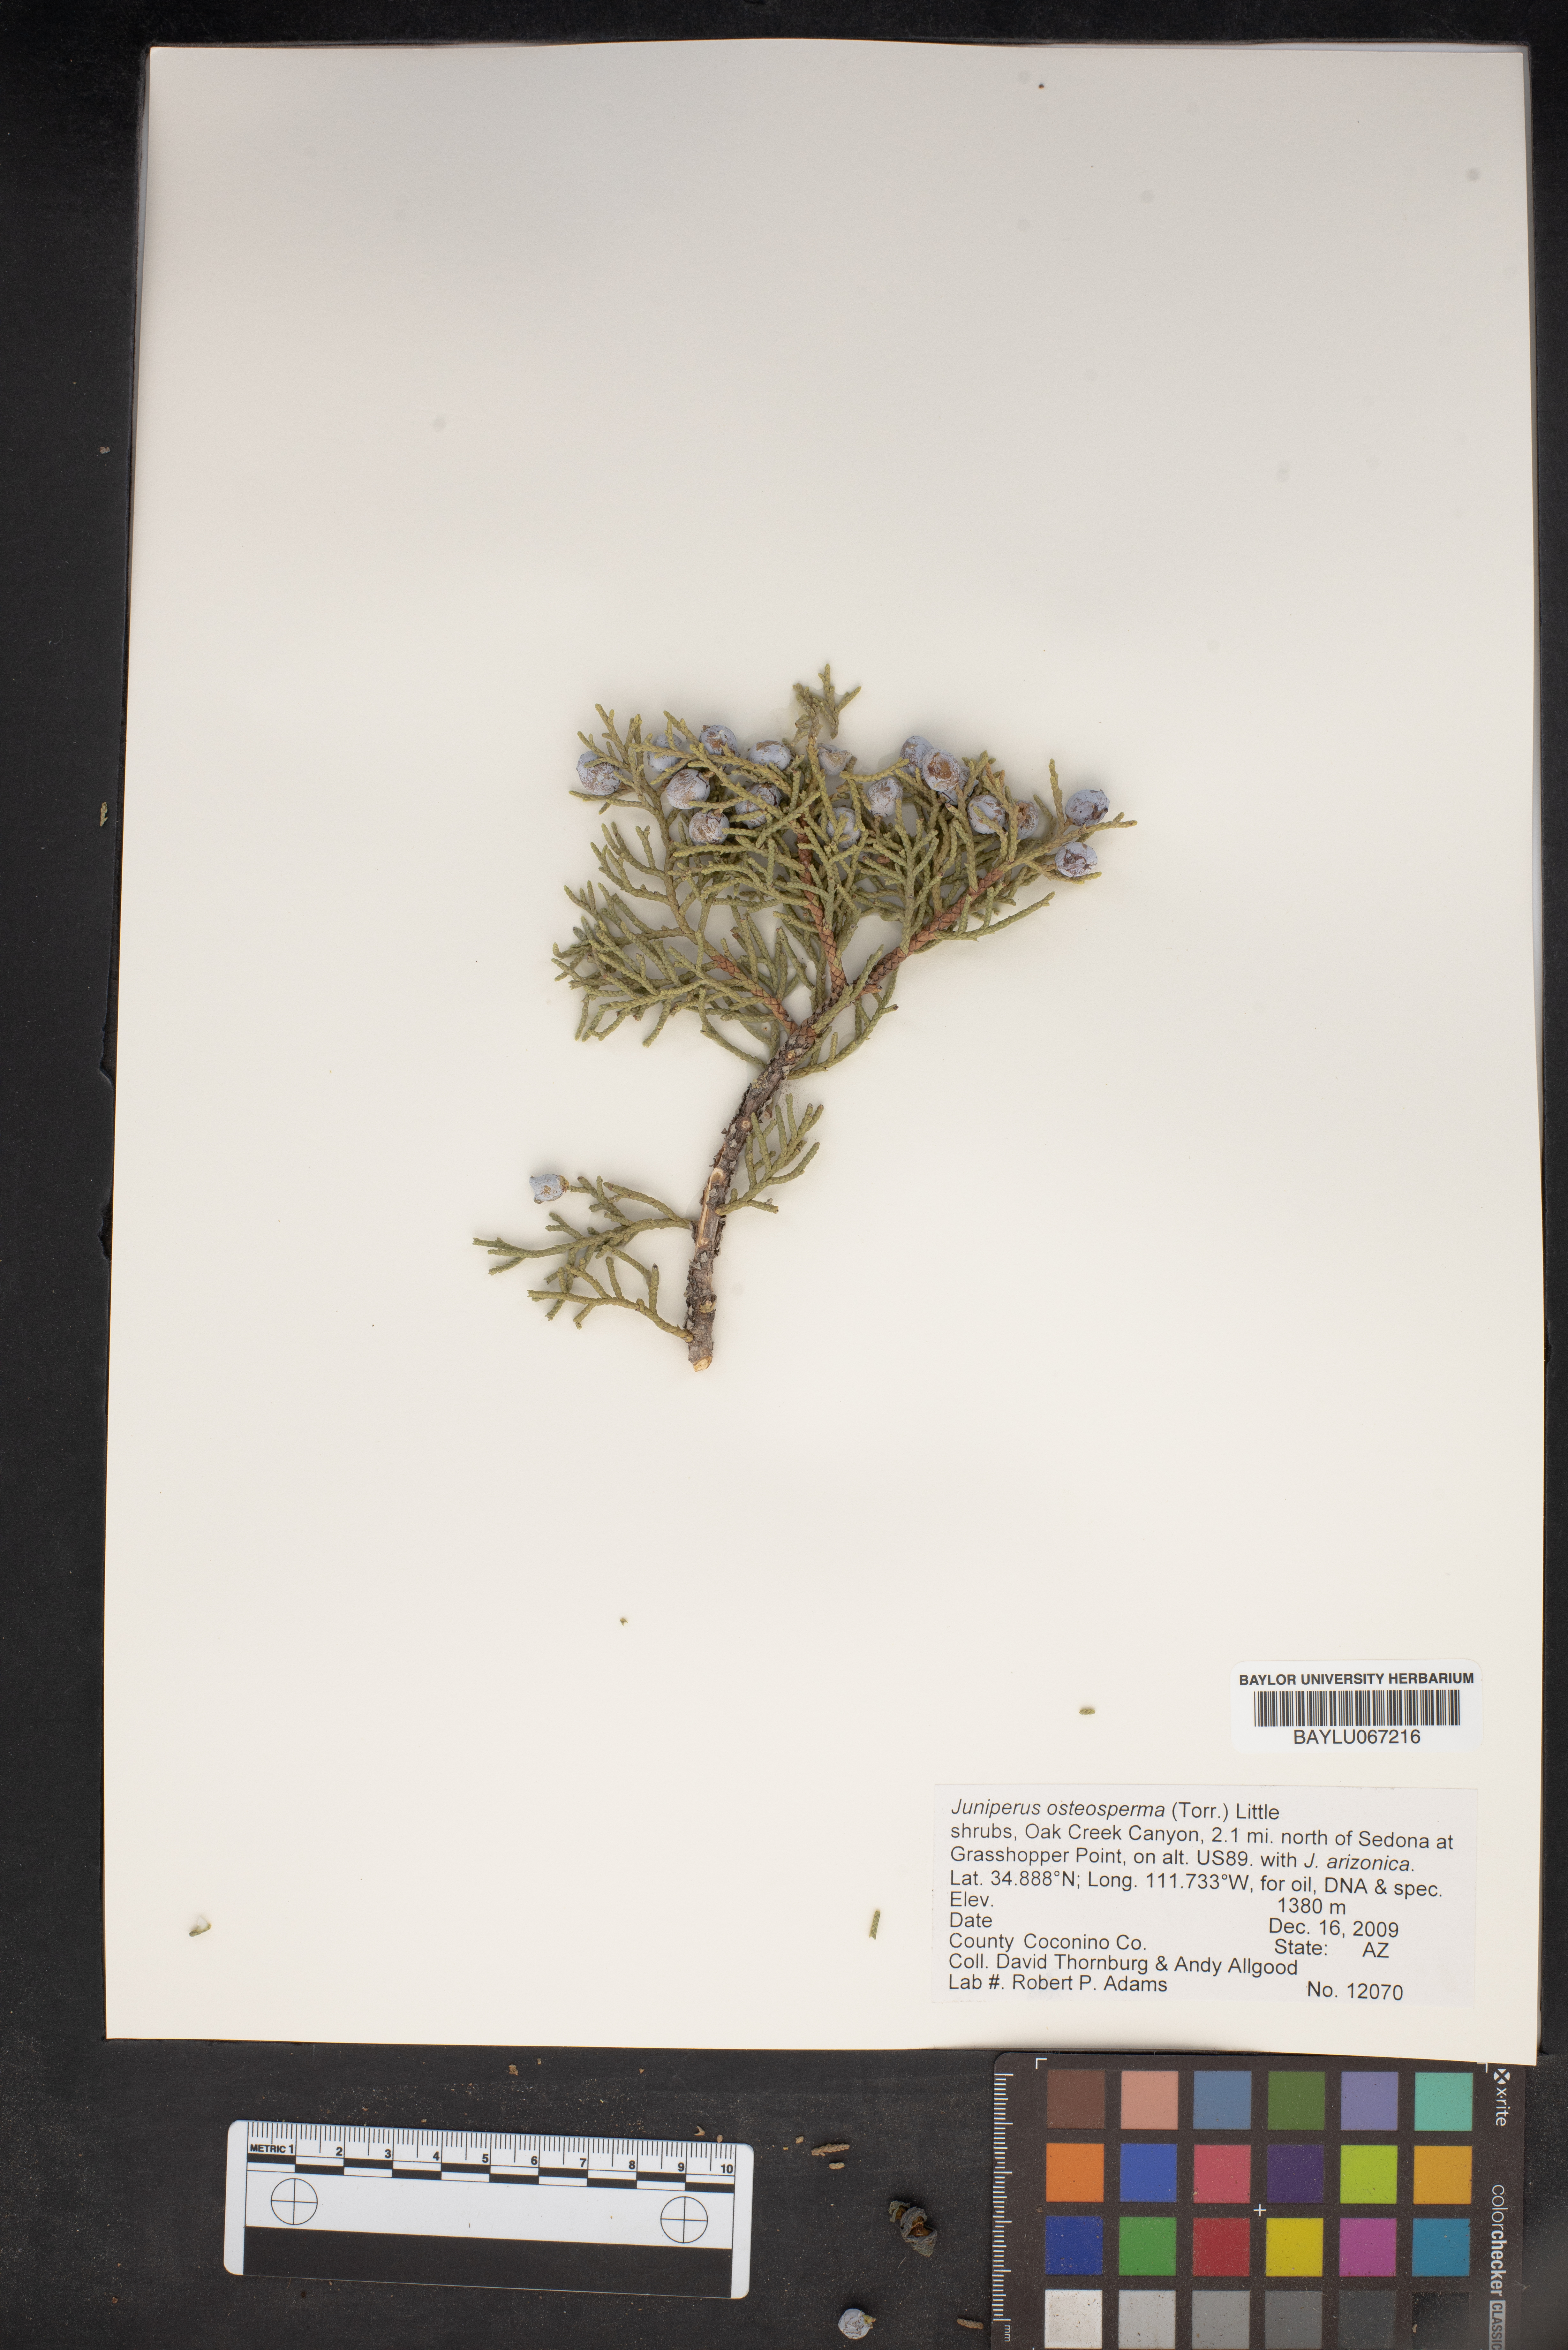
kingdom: Plantae
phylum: Tracheophyta
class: Pinopsida
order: Pinales
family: Cupressaceae
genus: Juniperus
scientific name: Juniperus osteosperma
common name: Utah juniper
